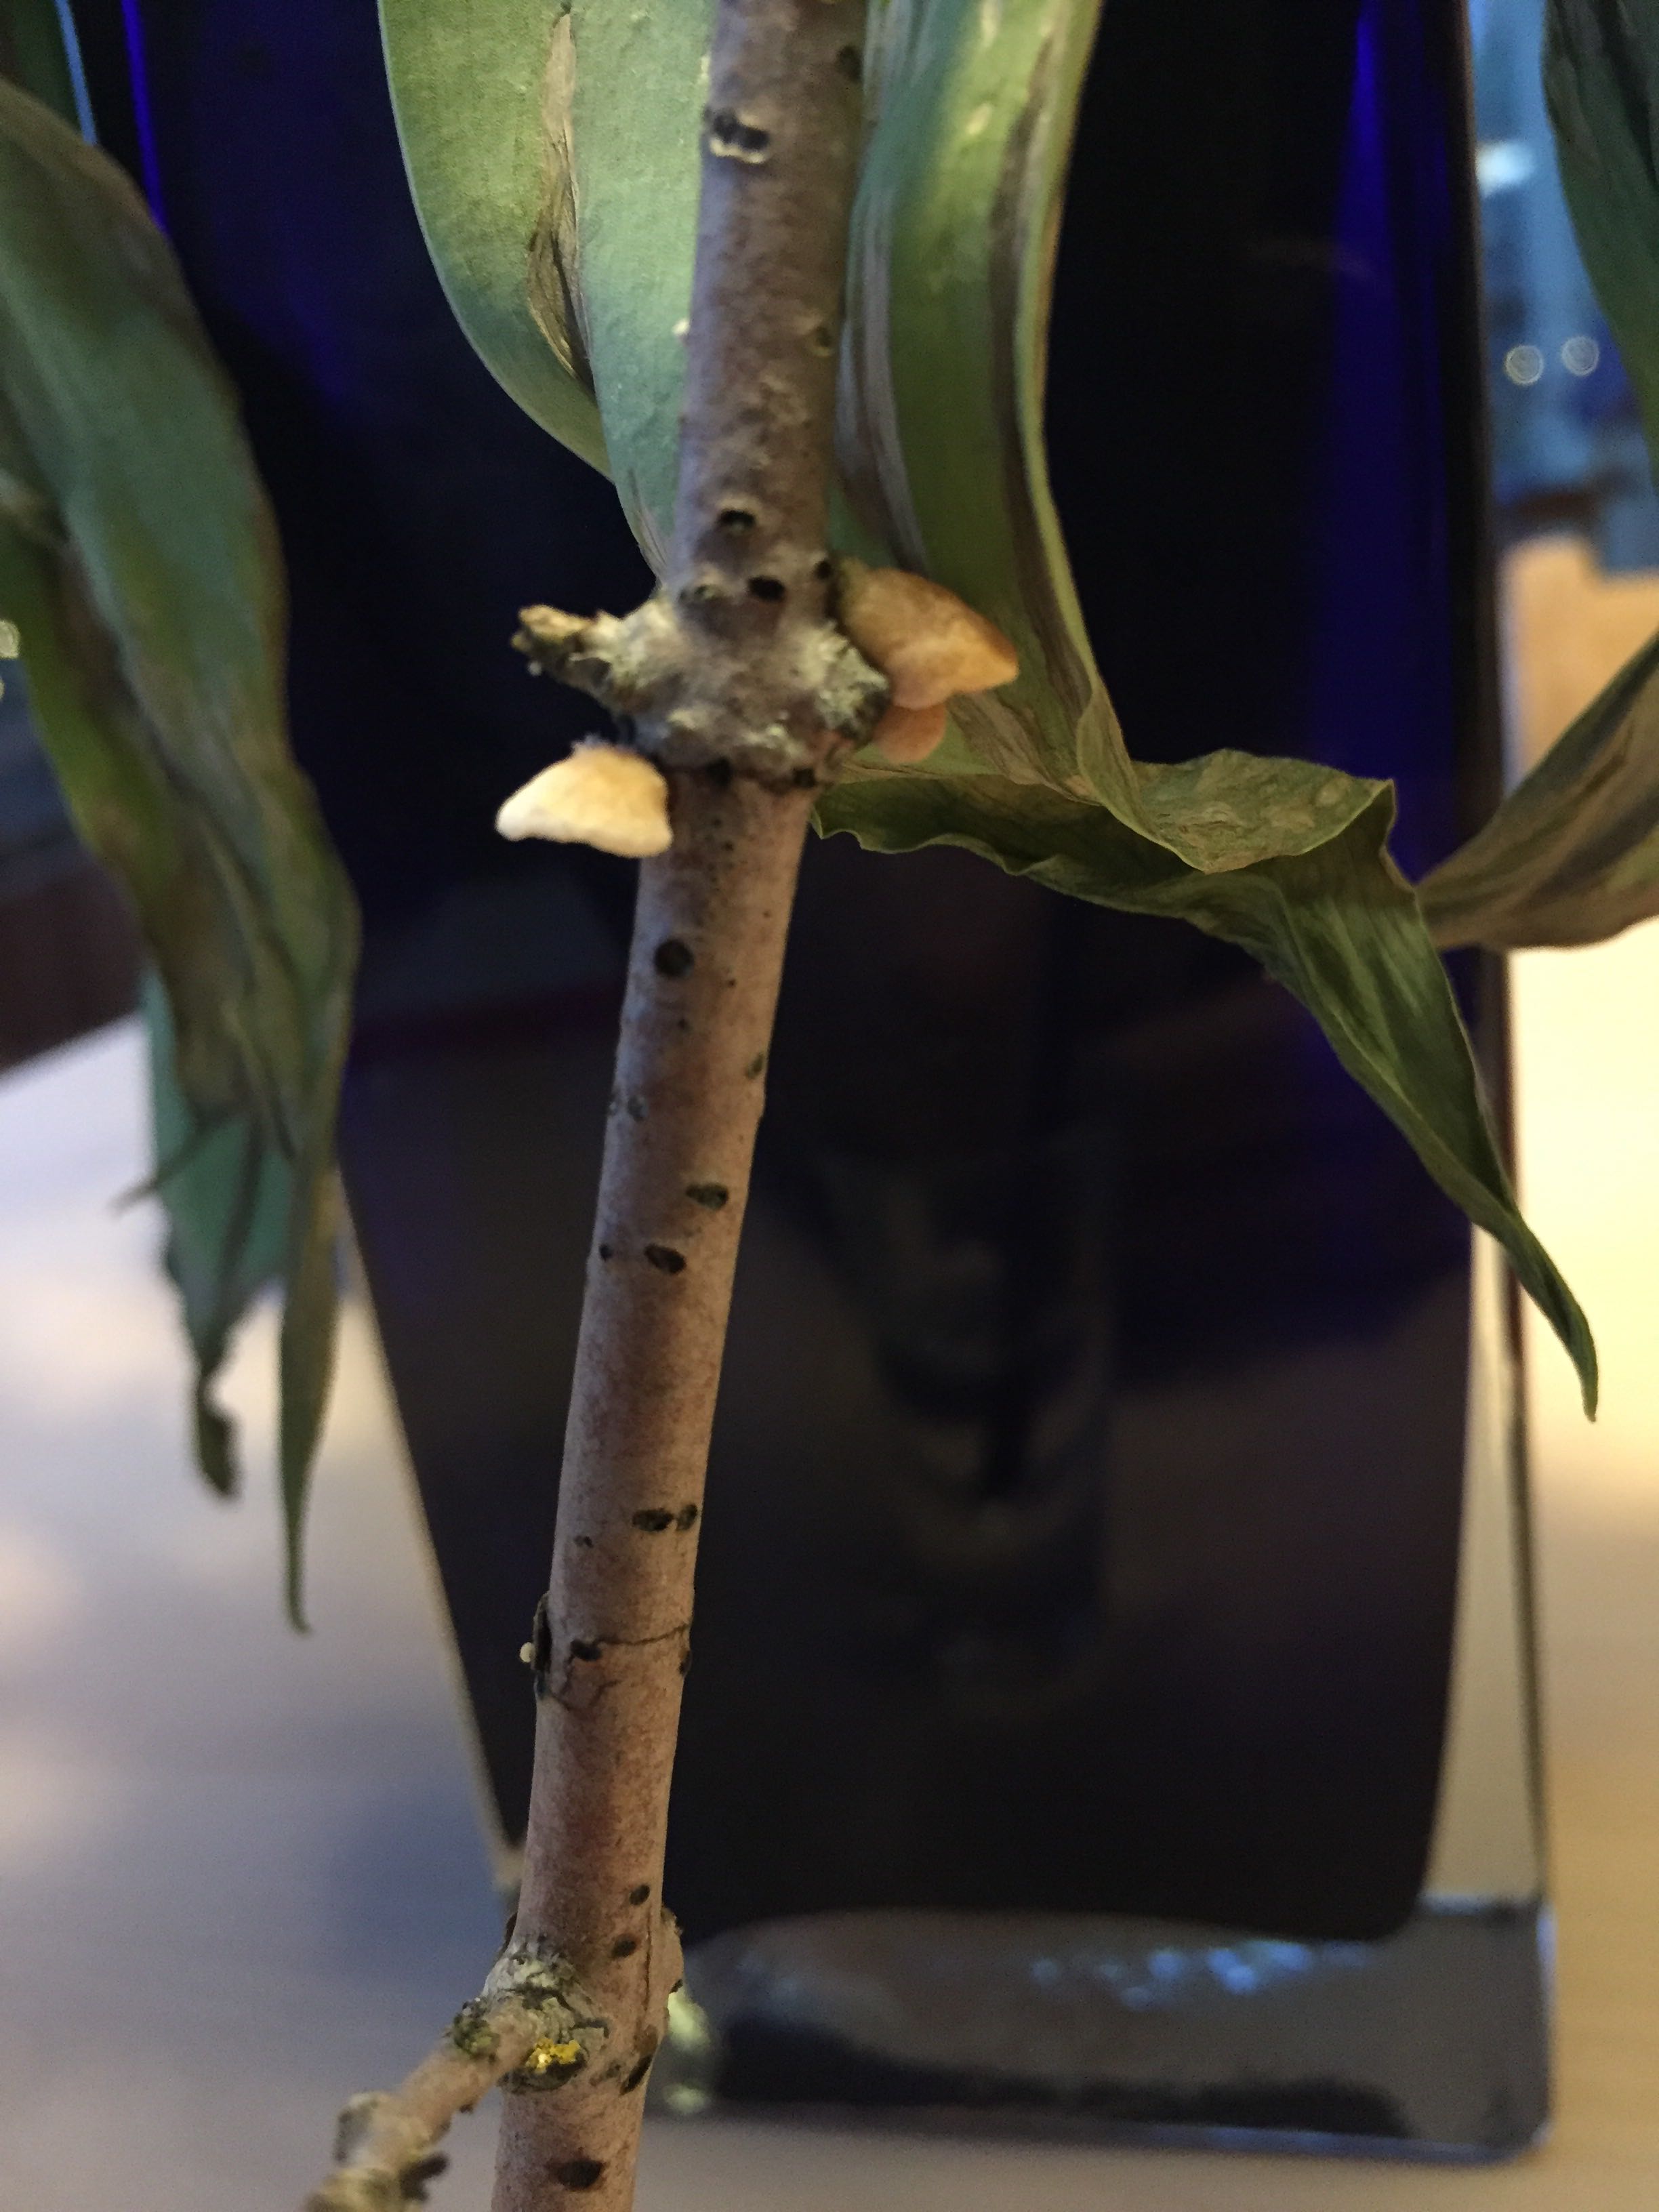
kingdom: Fungi
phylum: Basidiomycota
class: Agaricomycetes
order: Agaricales
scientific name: Agaricales
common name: champignonordenen
